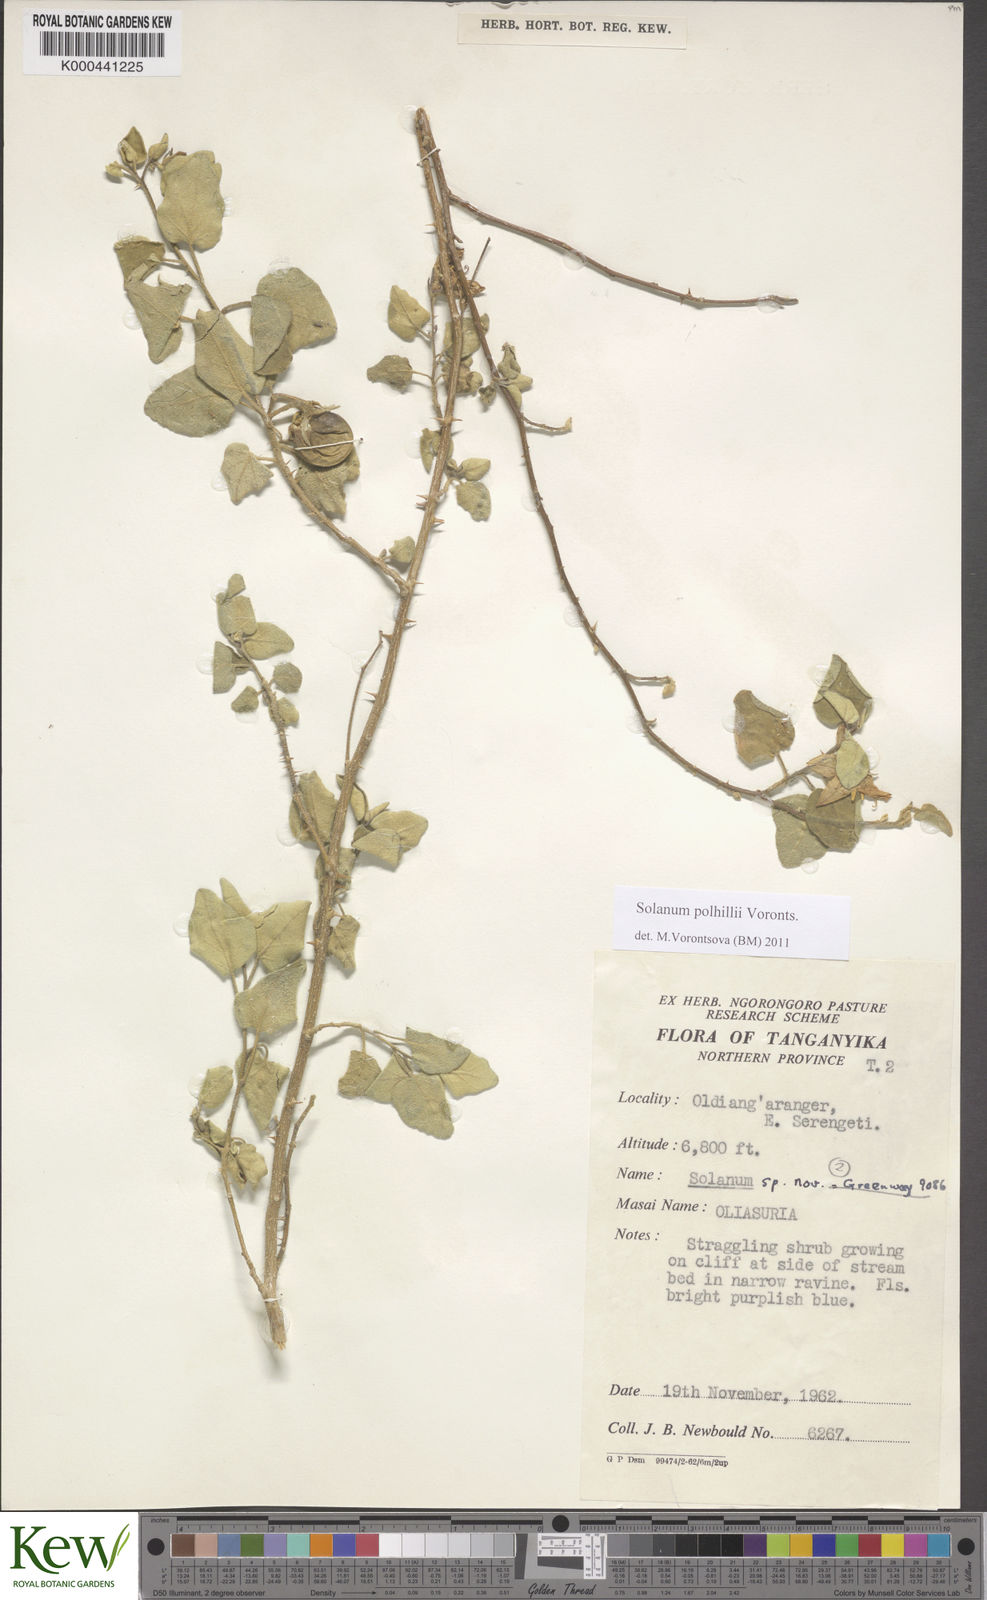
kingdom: Plantae
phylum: Tracheophyta
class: Magnoliopsida
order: Solanales
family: Solanaceae
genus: Solanum
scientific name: Solanum polhillii
